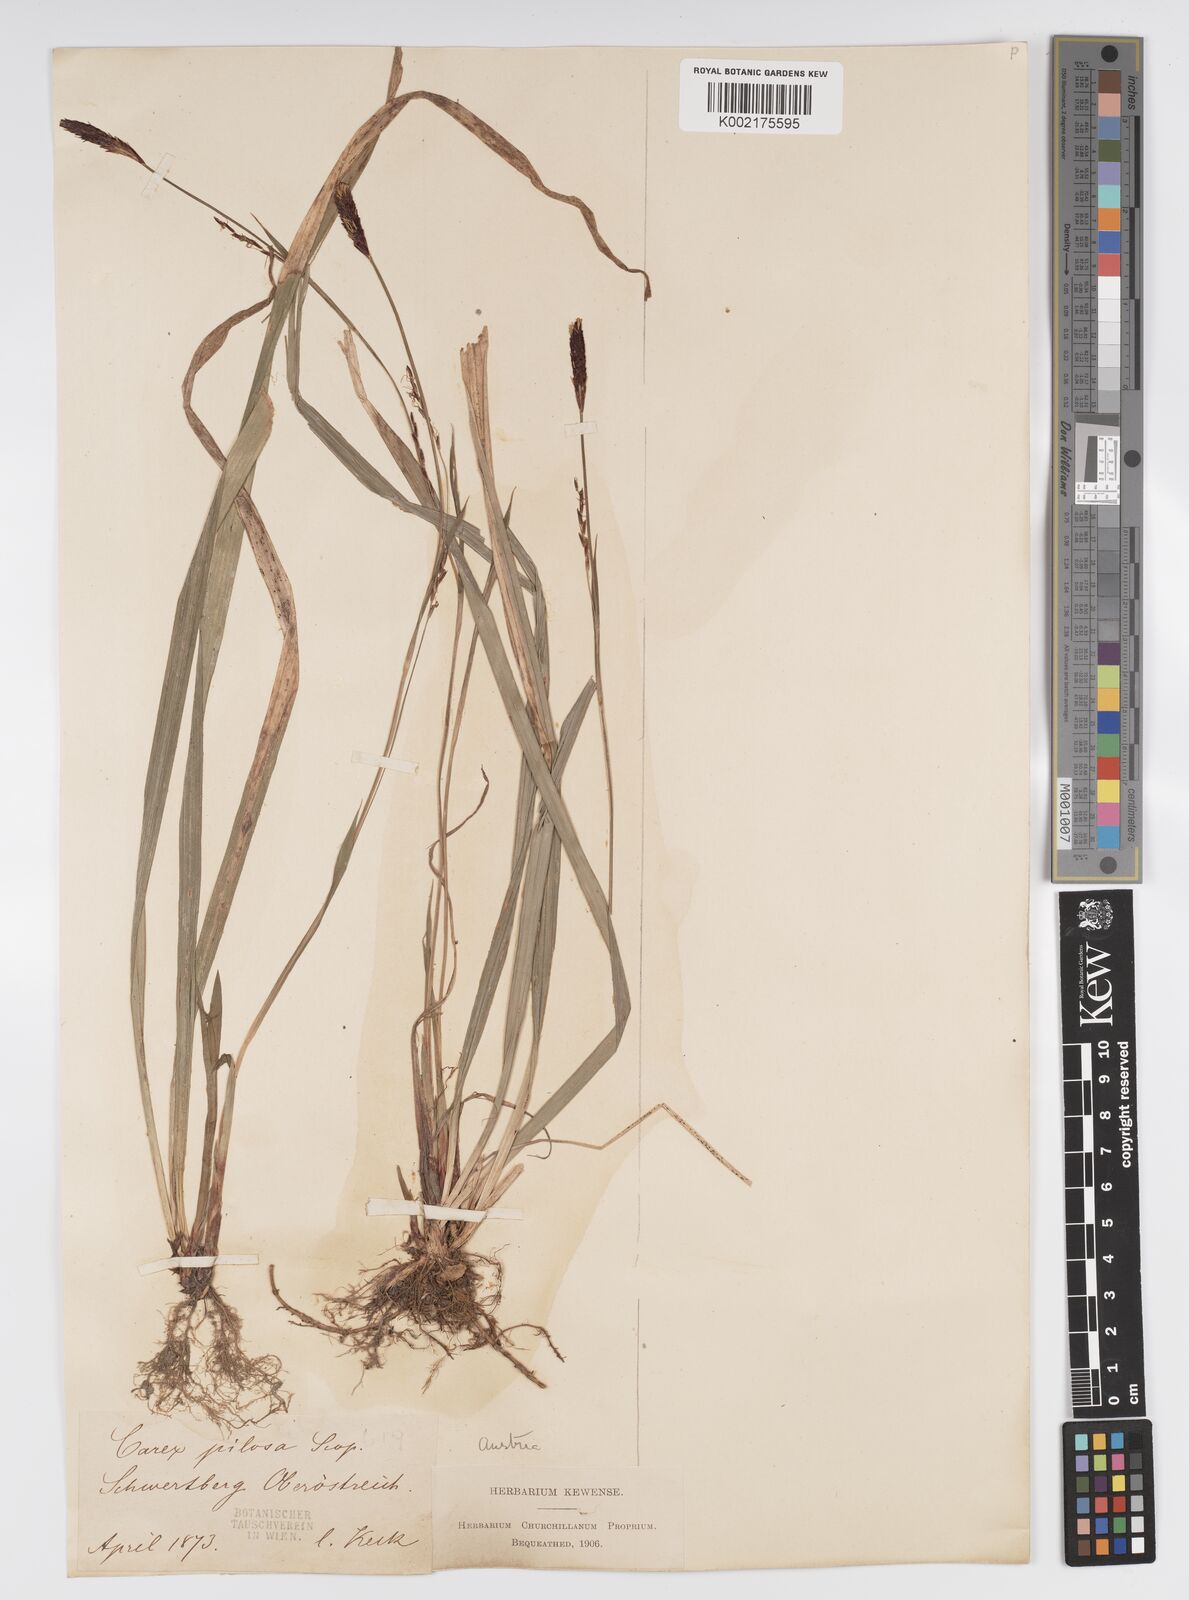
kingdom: Plantae
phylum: Tracheophyta
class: Liliopsida
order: Poales
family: Cyperaceae
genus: Carex
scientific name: Carex pilosa
